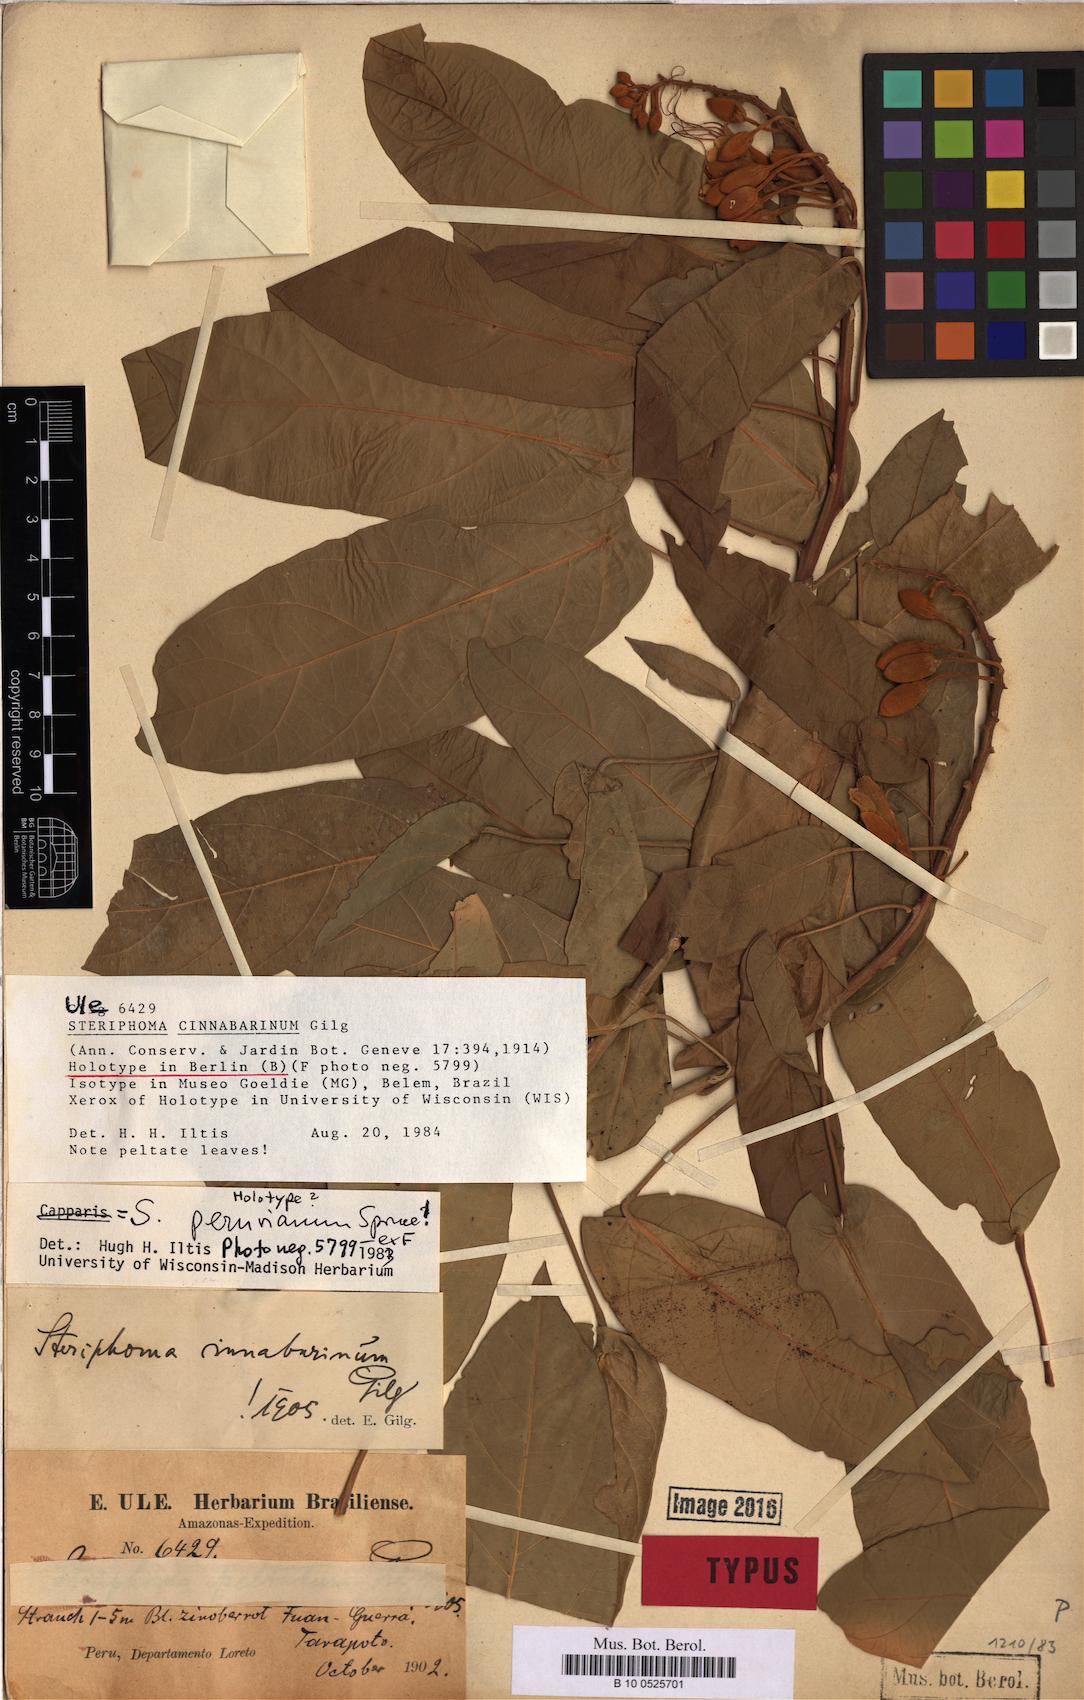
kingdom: Plantae
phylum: Tracheophyta
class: Magnoliopsida
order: Brassicales
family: Capparaceae
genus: Steriphoma
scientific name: Steriphoma peruvianum
